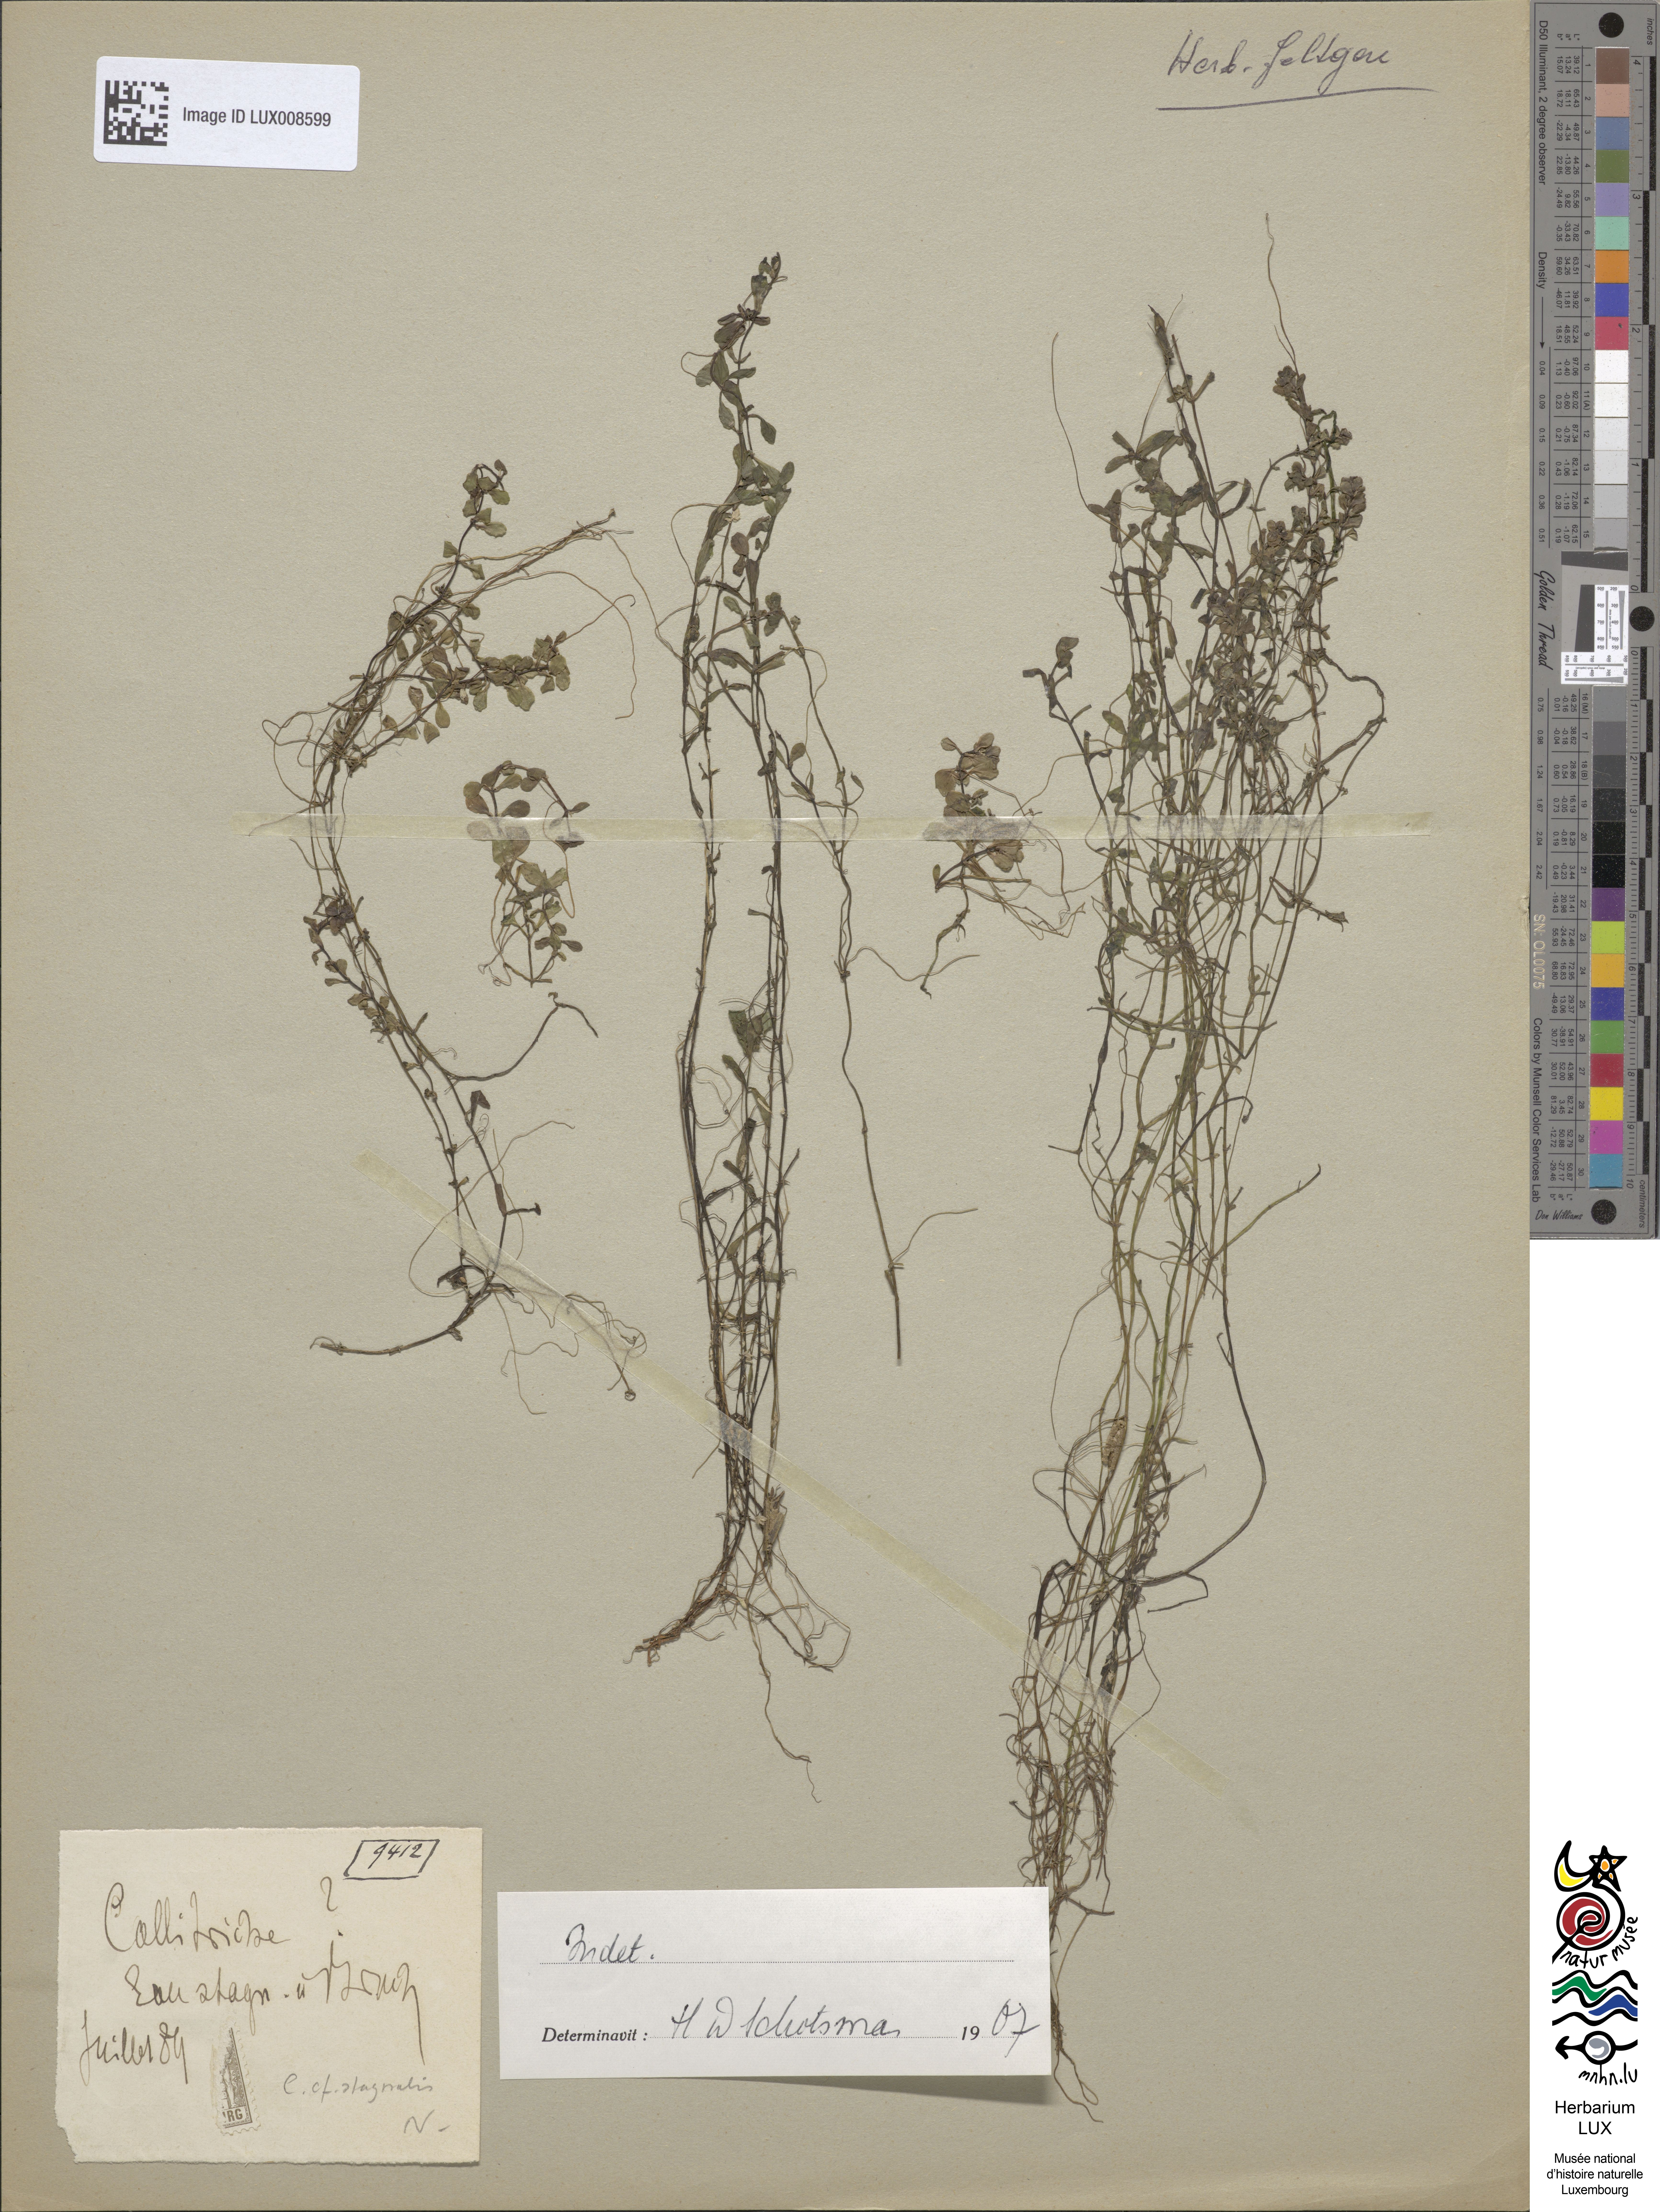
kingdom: Plantae
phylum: Tracheophyta
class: Magnoliopsida
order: Lamiales
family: Plantaginaceae
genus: Callitriche
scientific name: Callitriche
